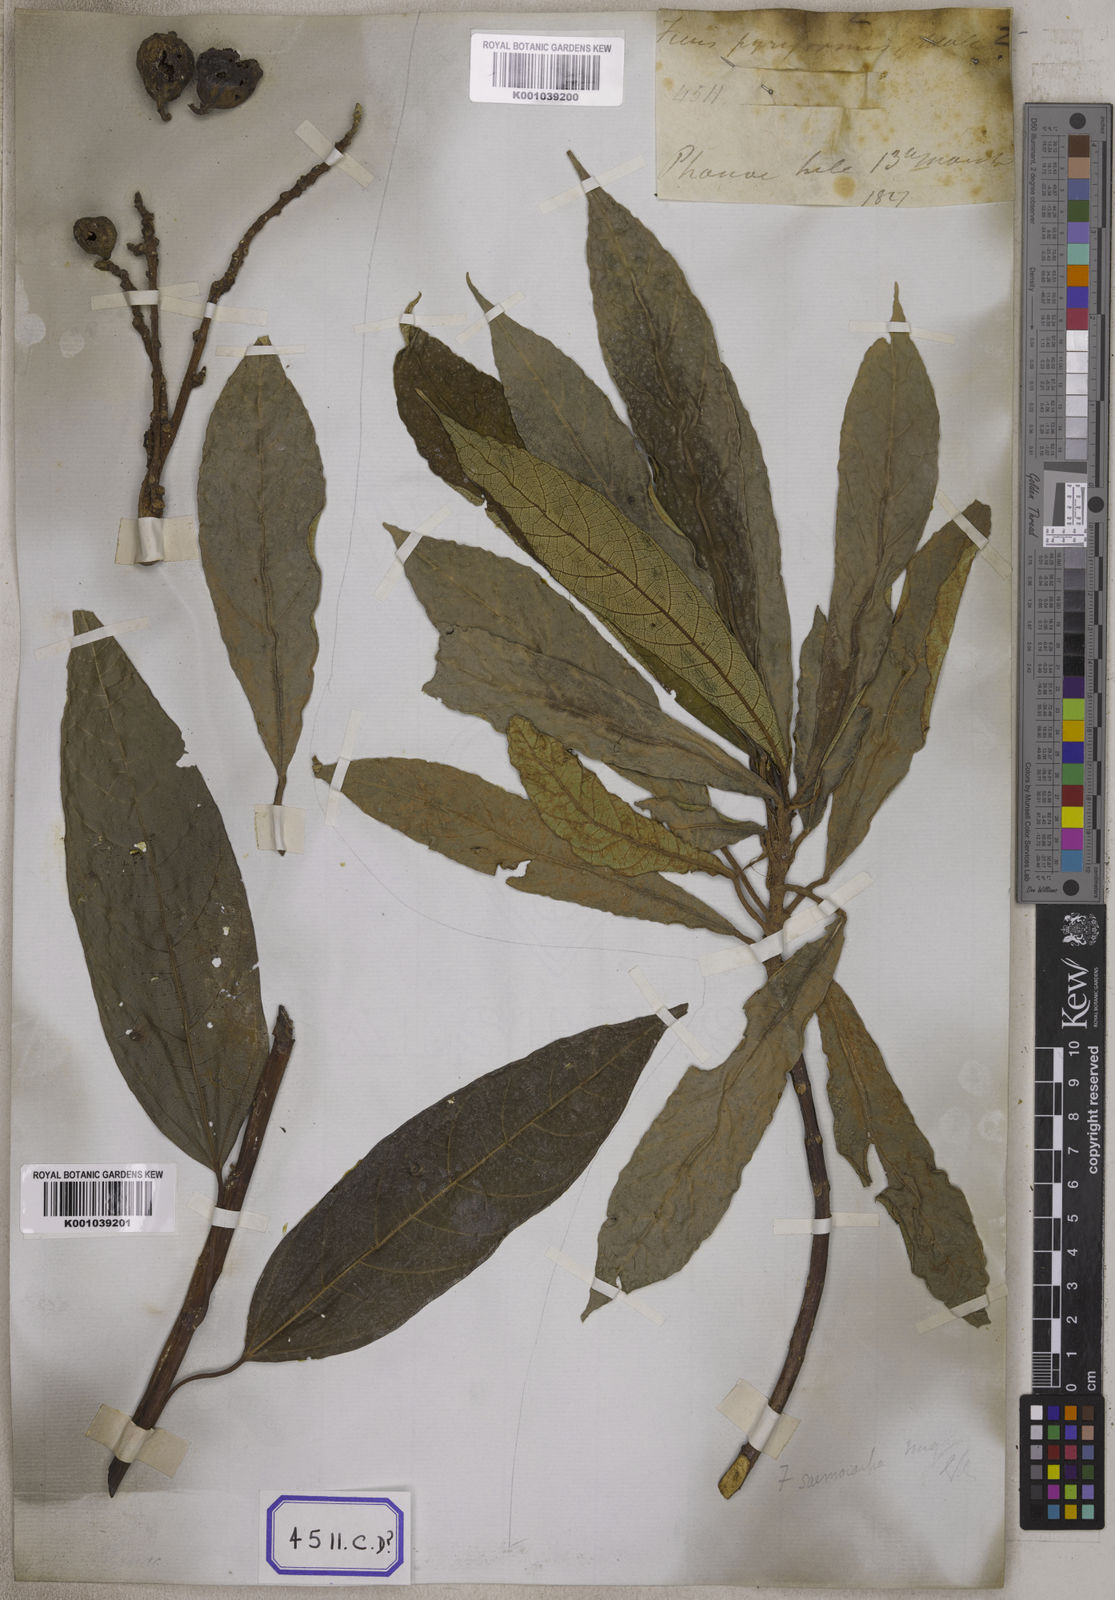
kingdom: Plantae
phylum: Tracheophyta
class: Magnoliopsida
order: Rosales
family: Moraceae
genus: Ficus
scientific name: Ficus racemosa
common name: Cluster fig
